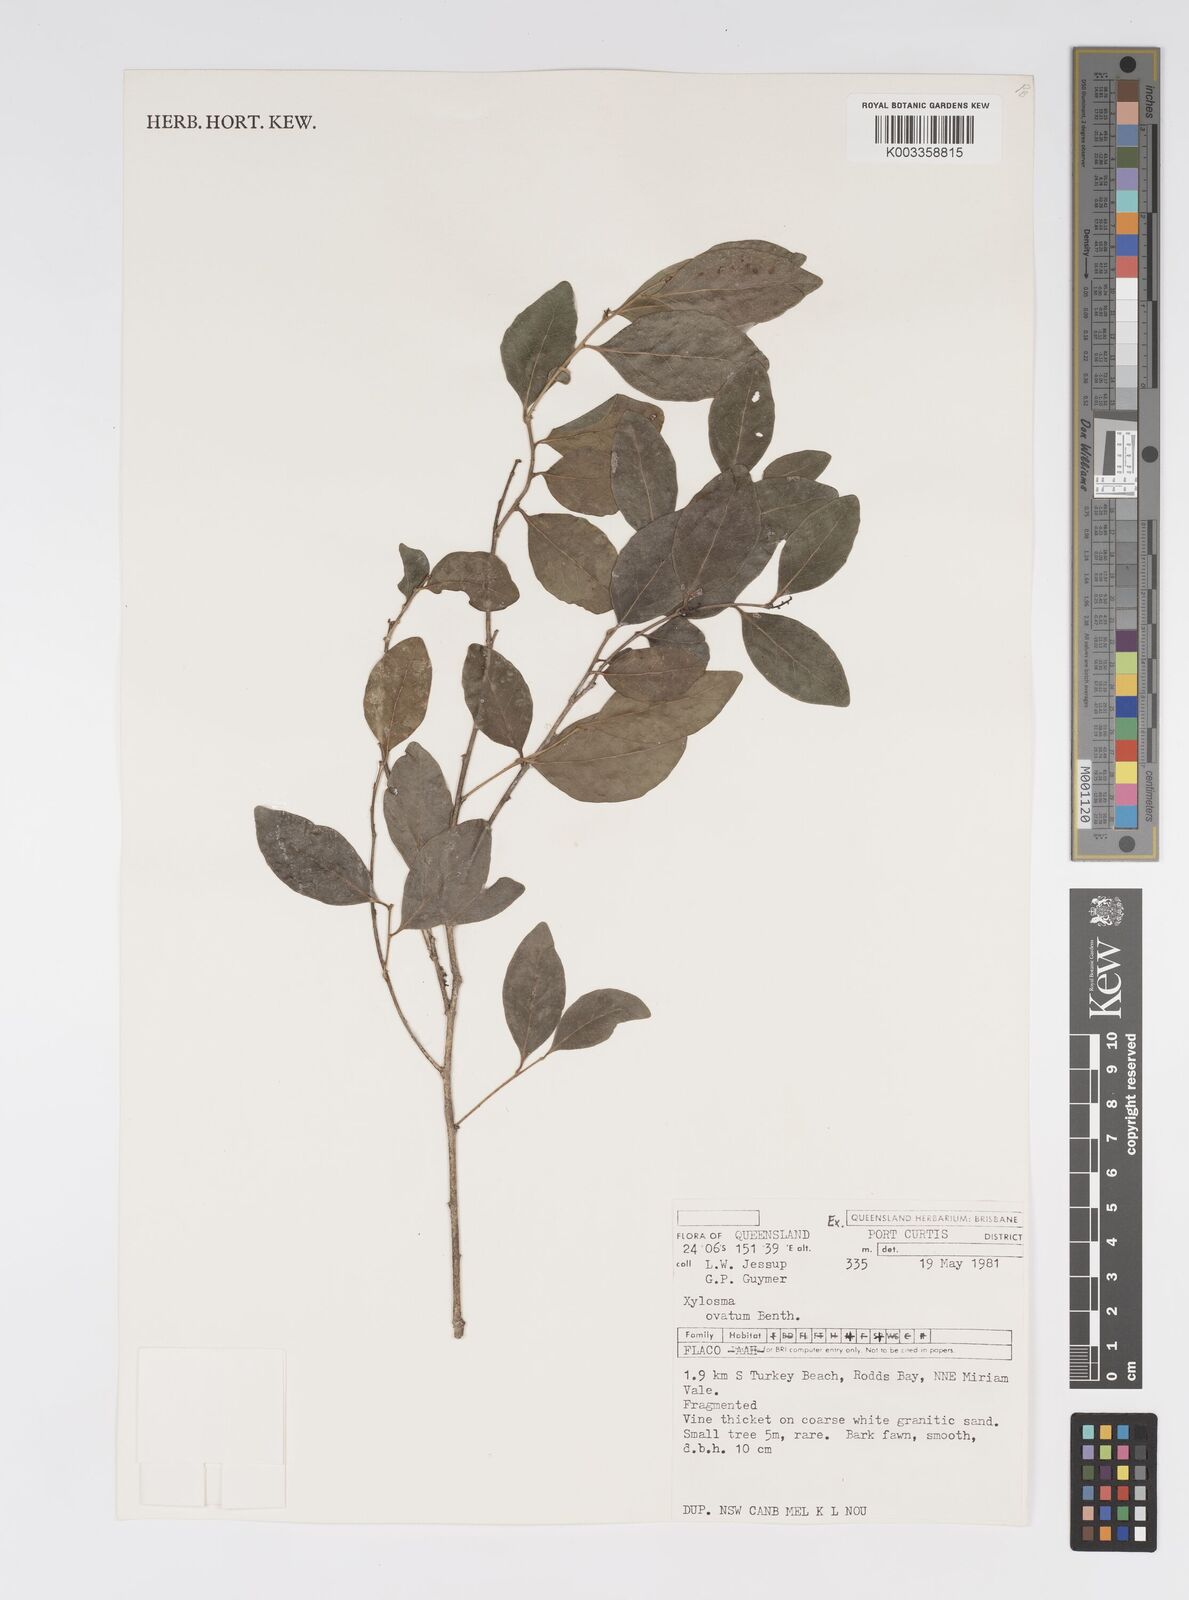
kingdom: Plantae
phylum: Tracheophyta
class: Magnoliopsida
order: Malpighiales
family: Salicaceae
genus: Xylosma
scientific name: Xylosma
